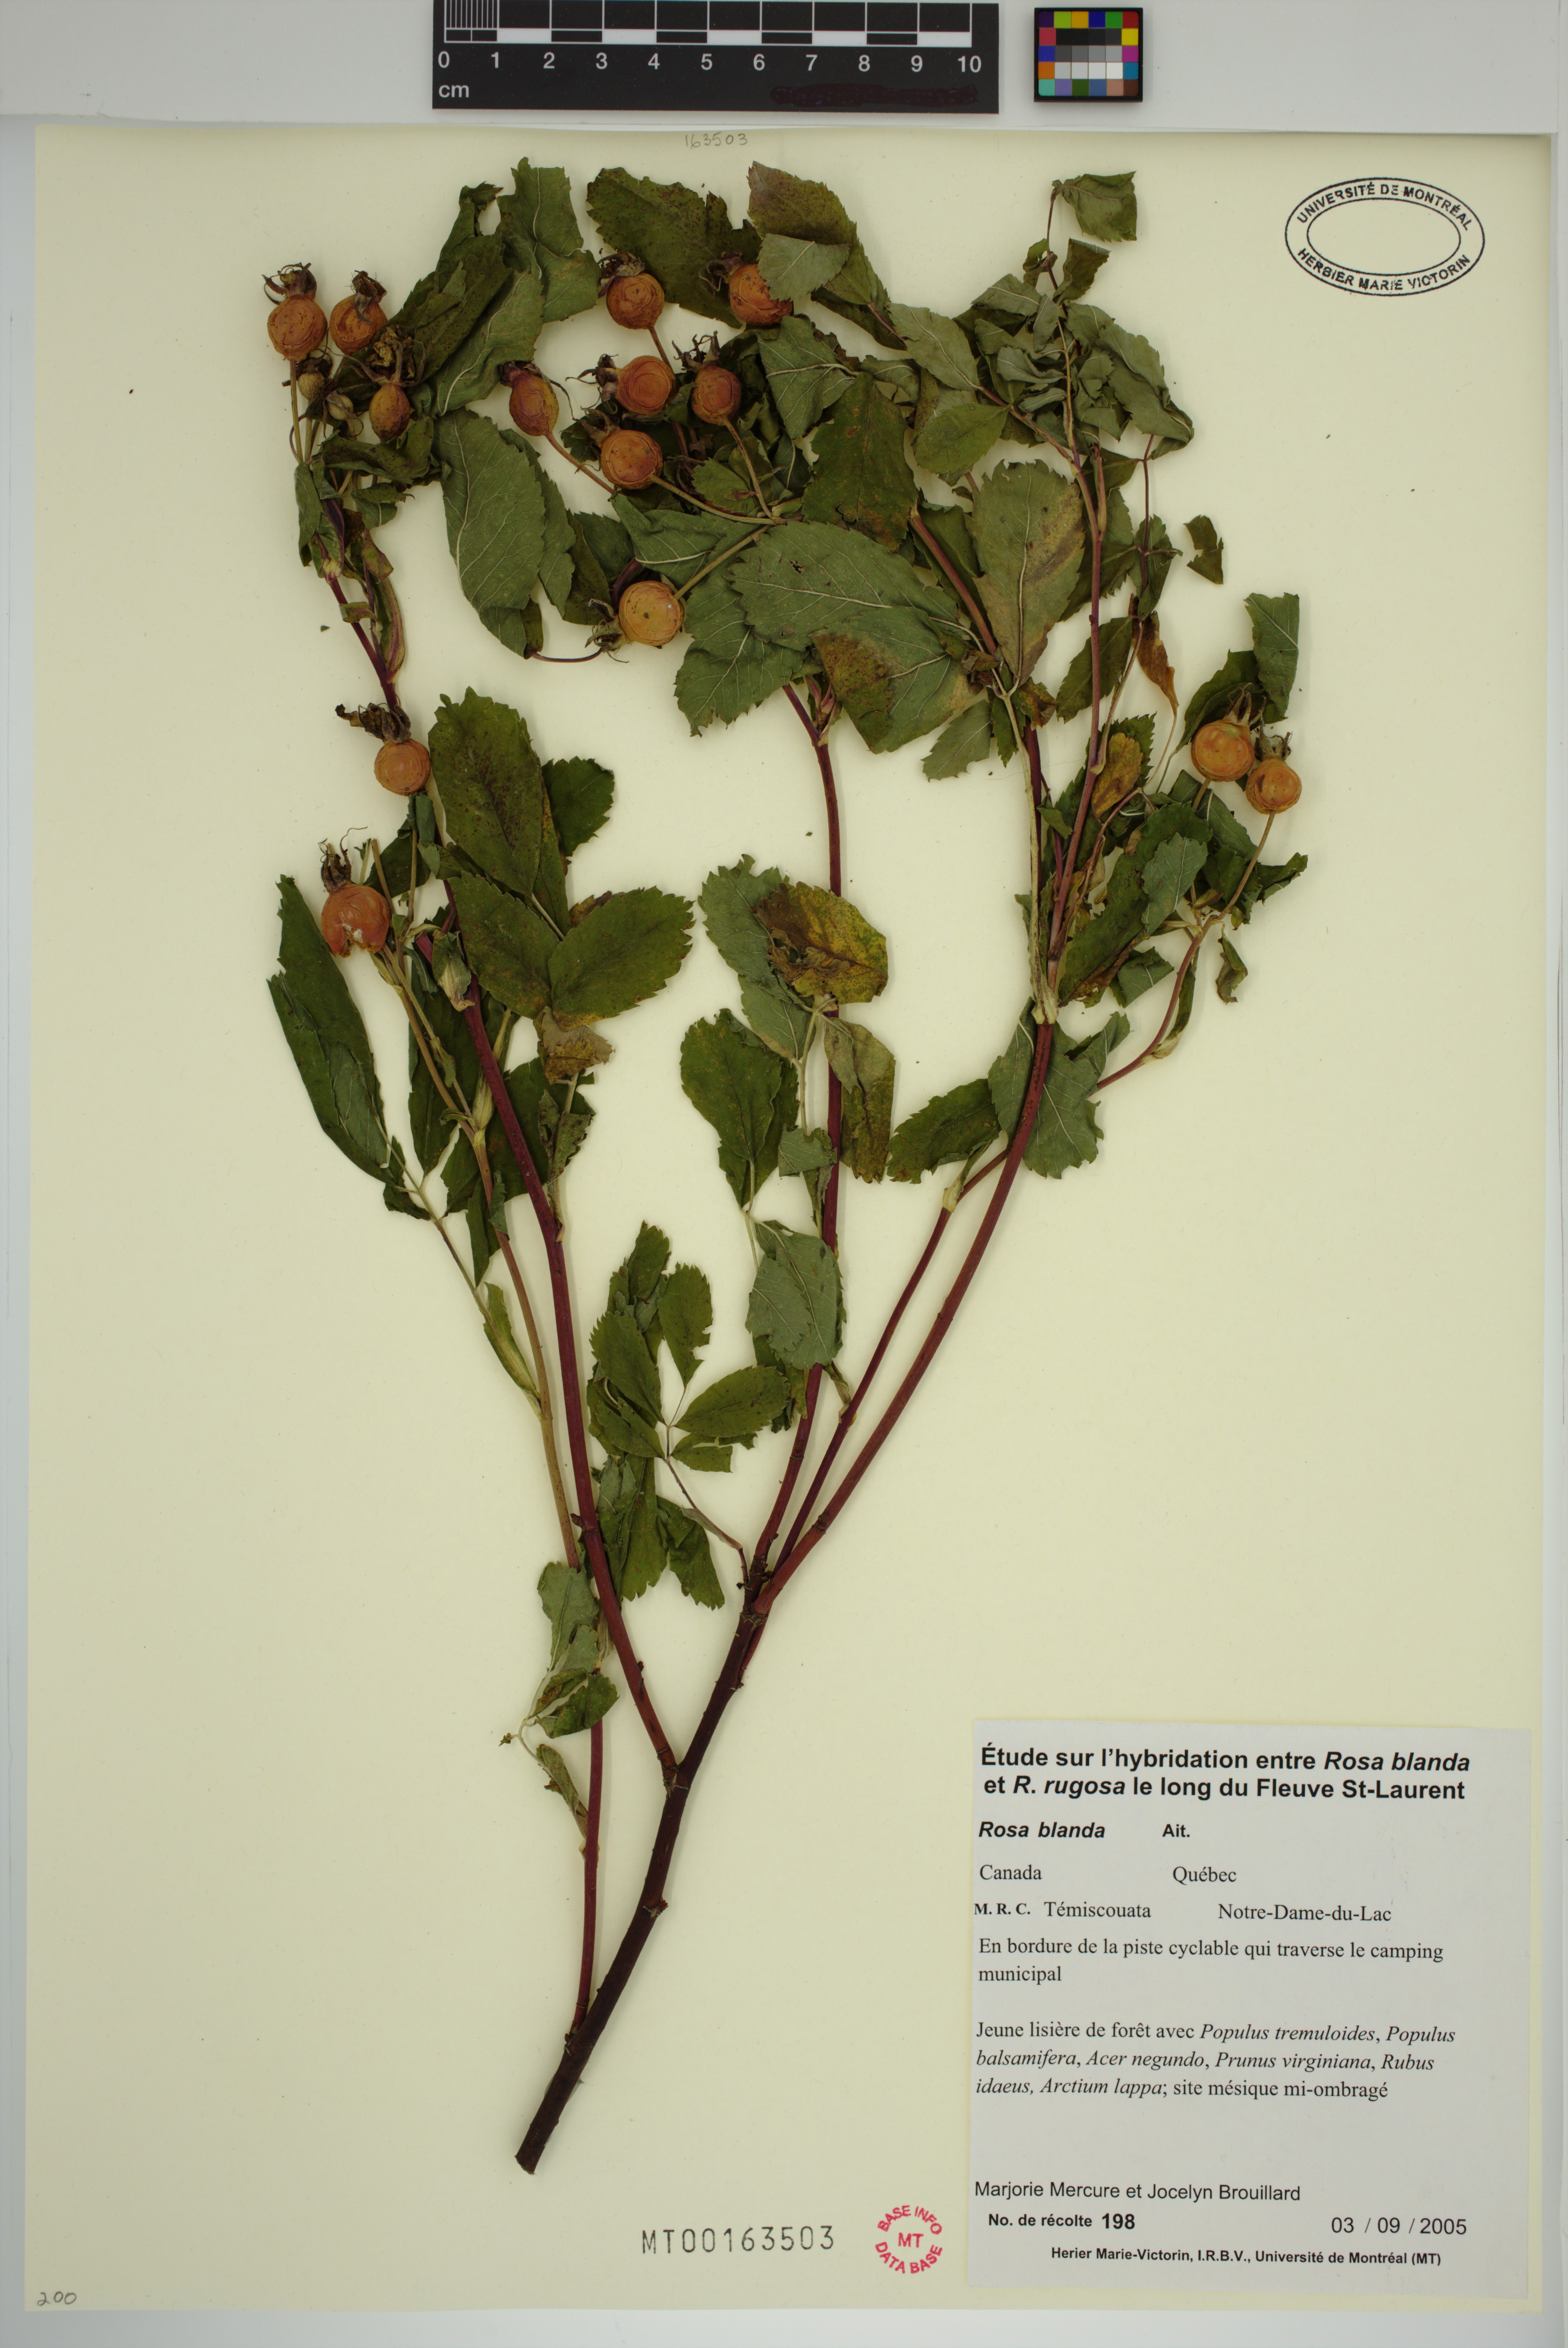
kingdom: Plantae
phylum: Tracheophyta
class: Magnoliopsida
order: Rosales
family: Rosaceae
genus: Rosa
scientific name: Rosa blanda
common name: Smooth rose
